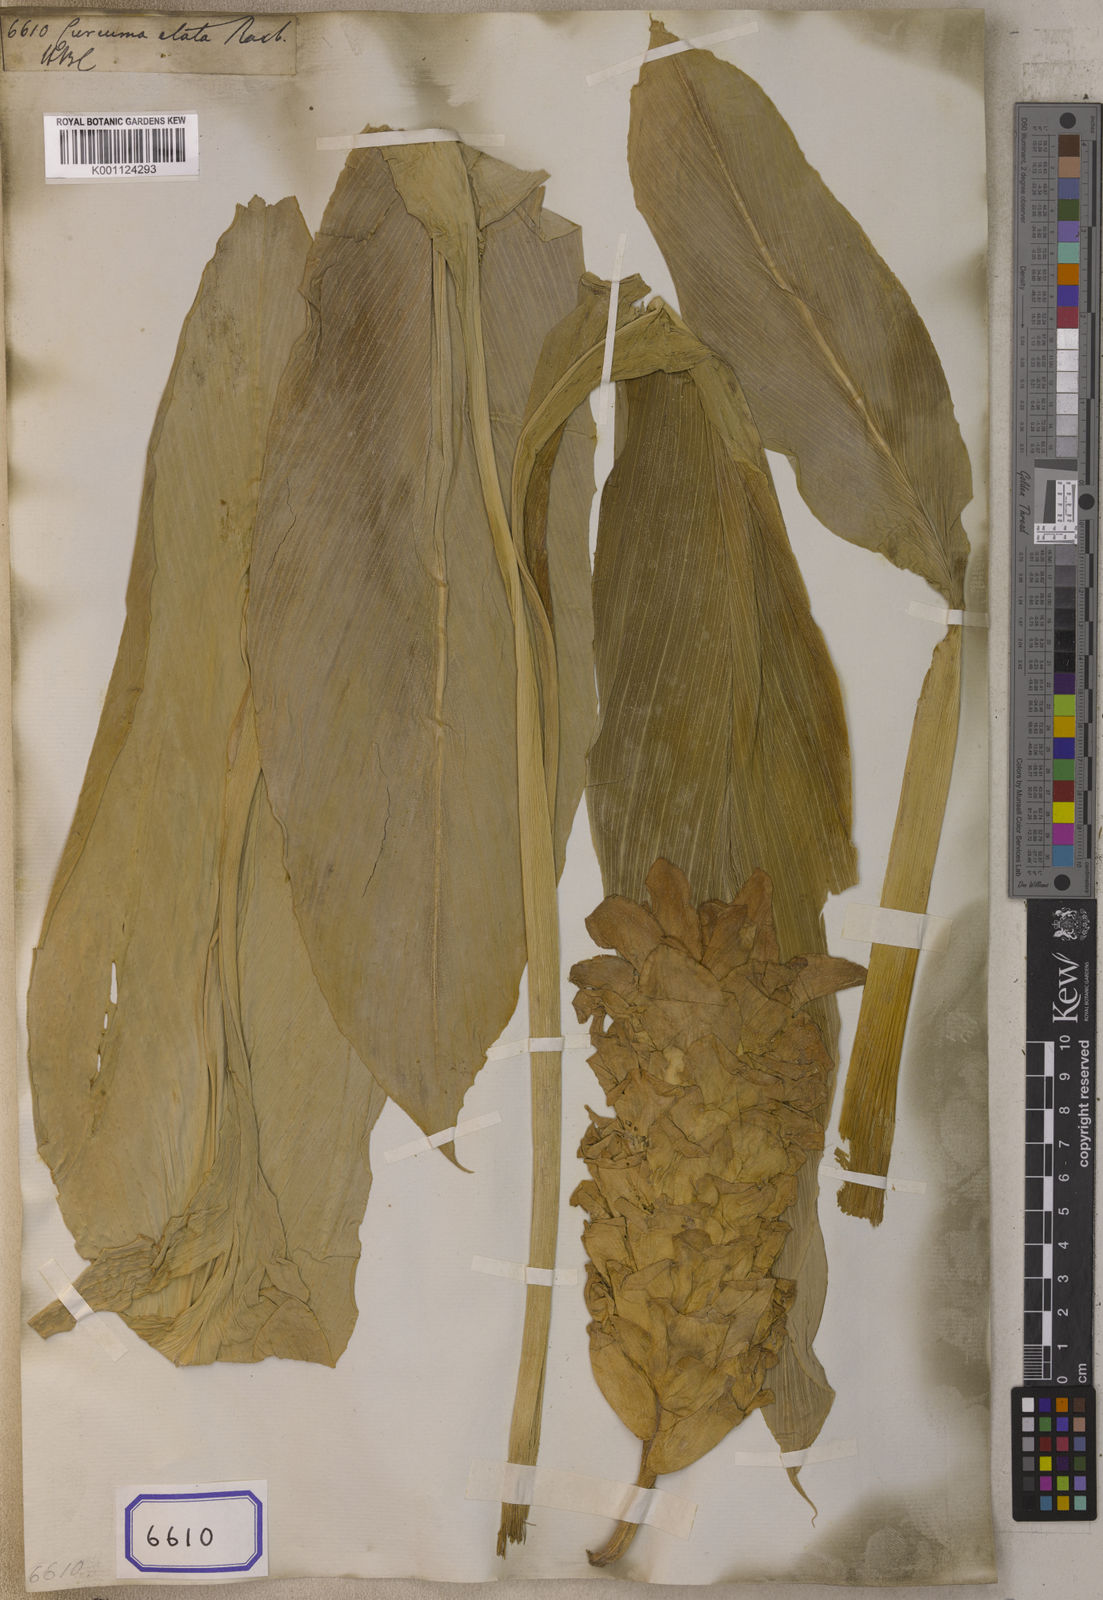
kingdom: Plantae
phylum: Tracheophyta
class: Liliopsida
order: Zingiberales
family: Zingiberaceae
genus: Curcuma
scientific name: Curcuma elata
